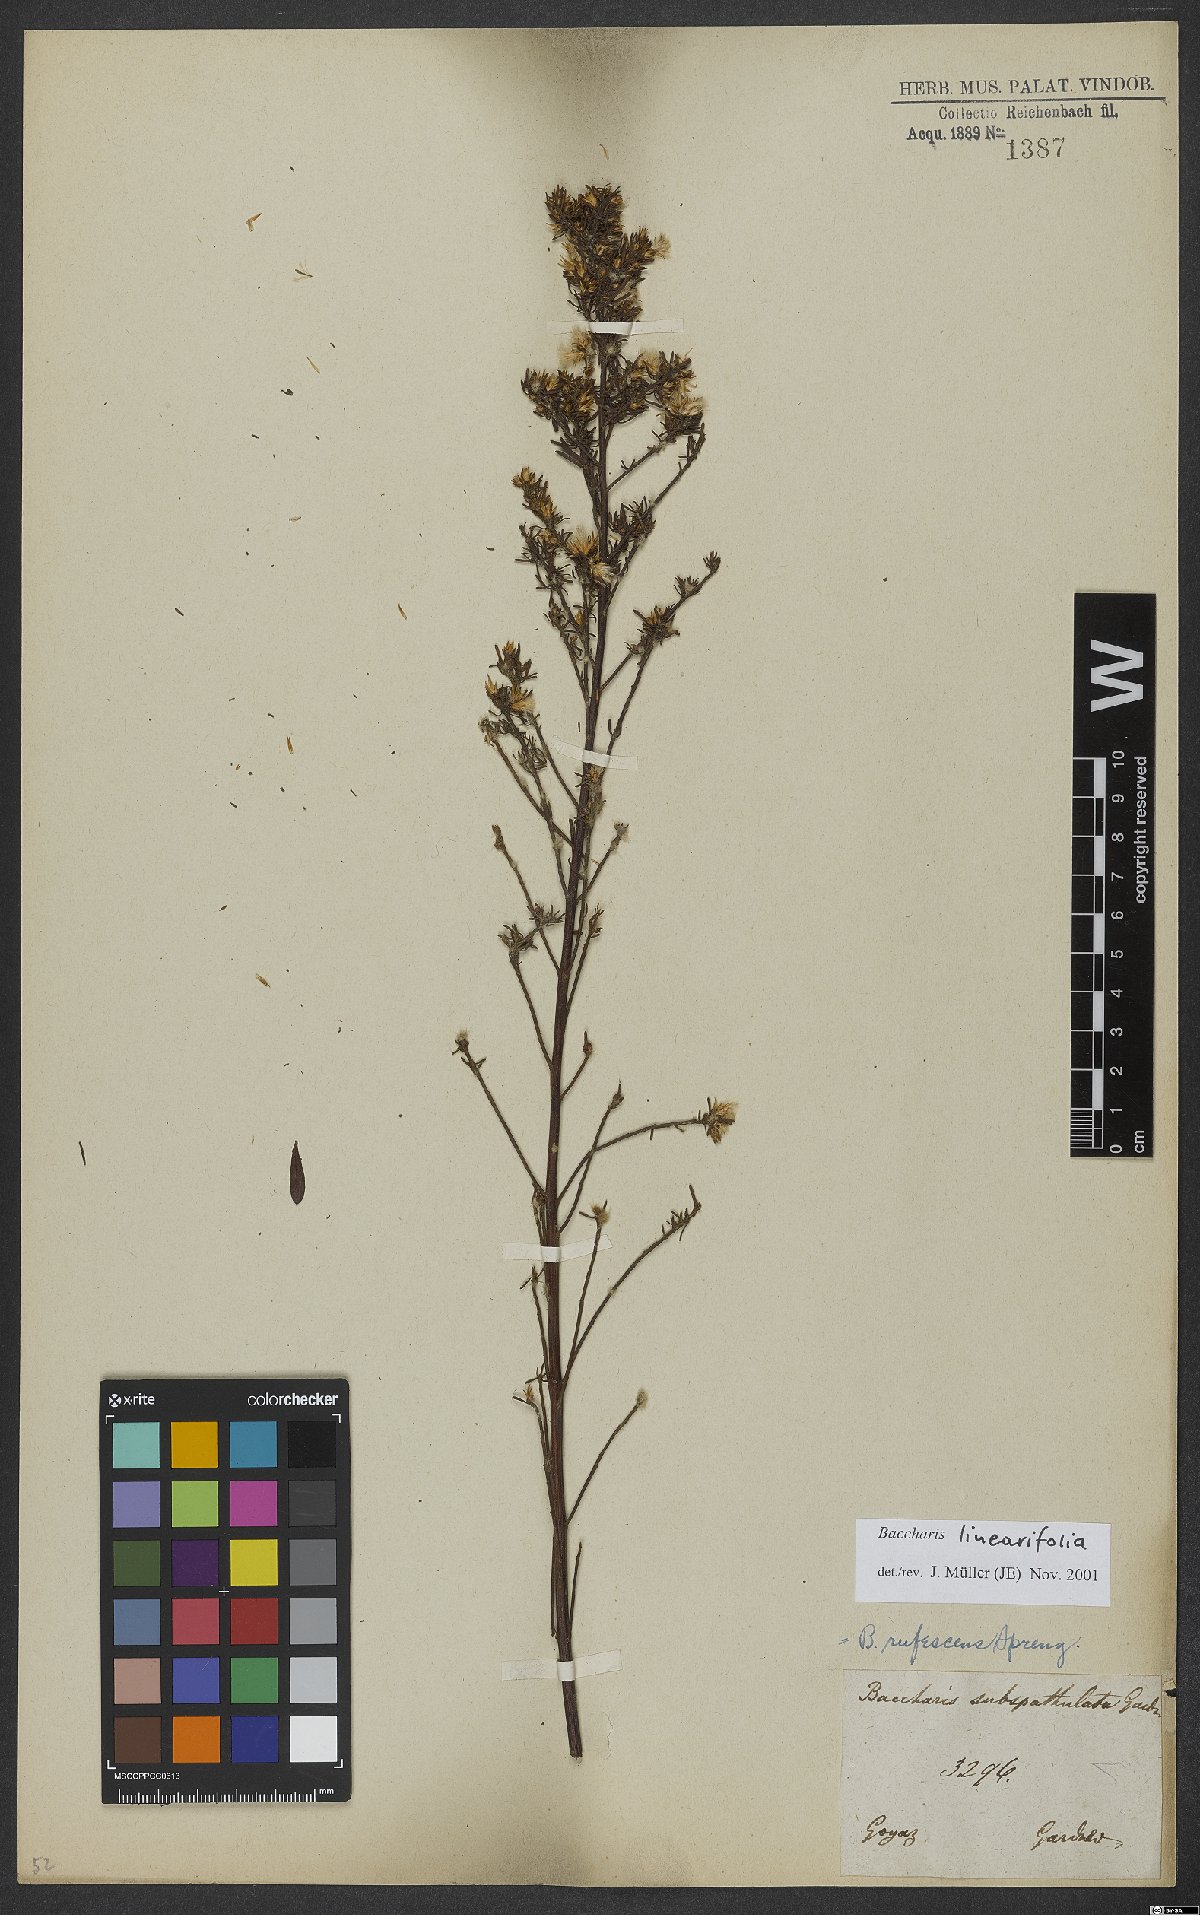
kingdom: Plantae
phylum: Tracheophyta
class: Magnoliopsida
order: Asterales
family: Asteraceae
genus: Baccharis
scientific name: Baccharis linearifolia
